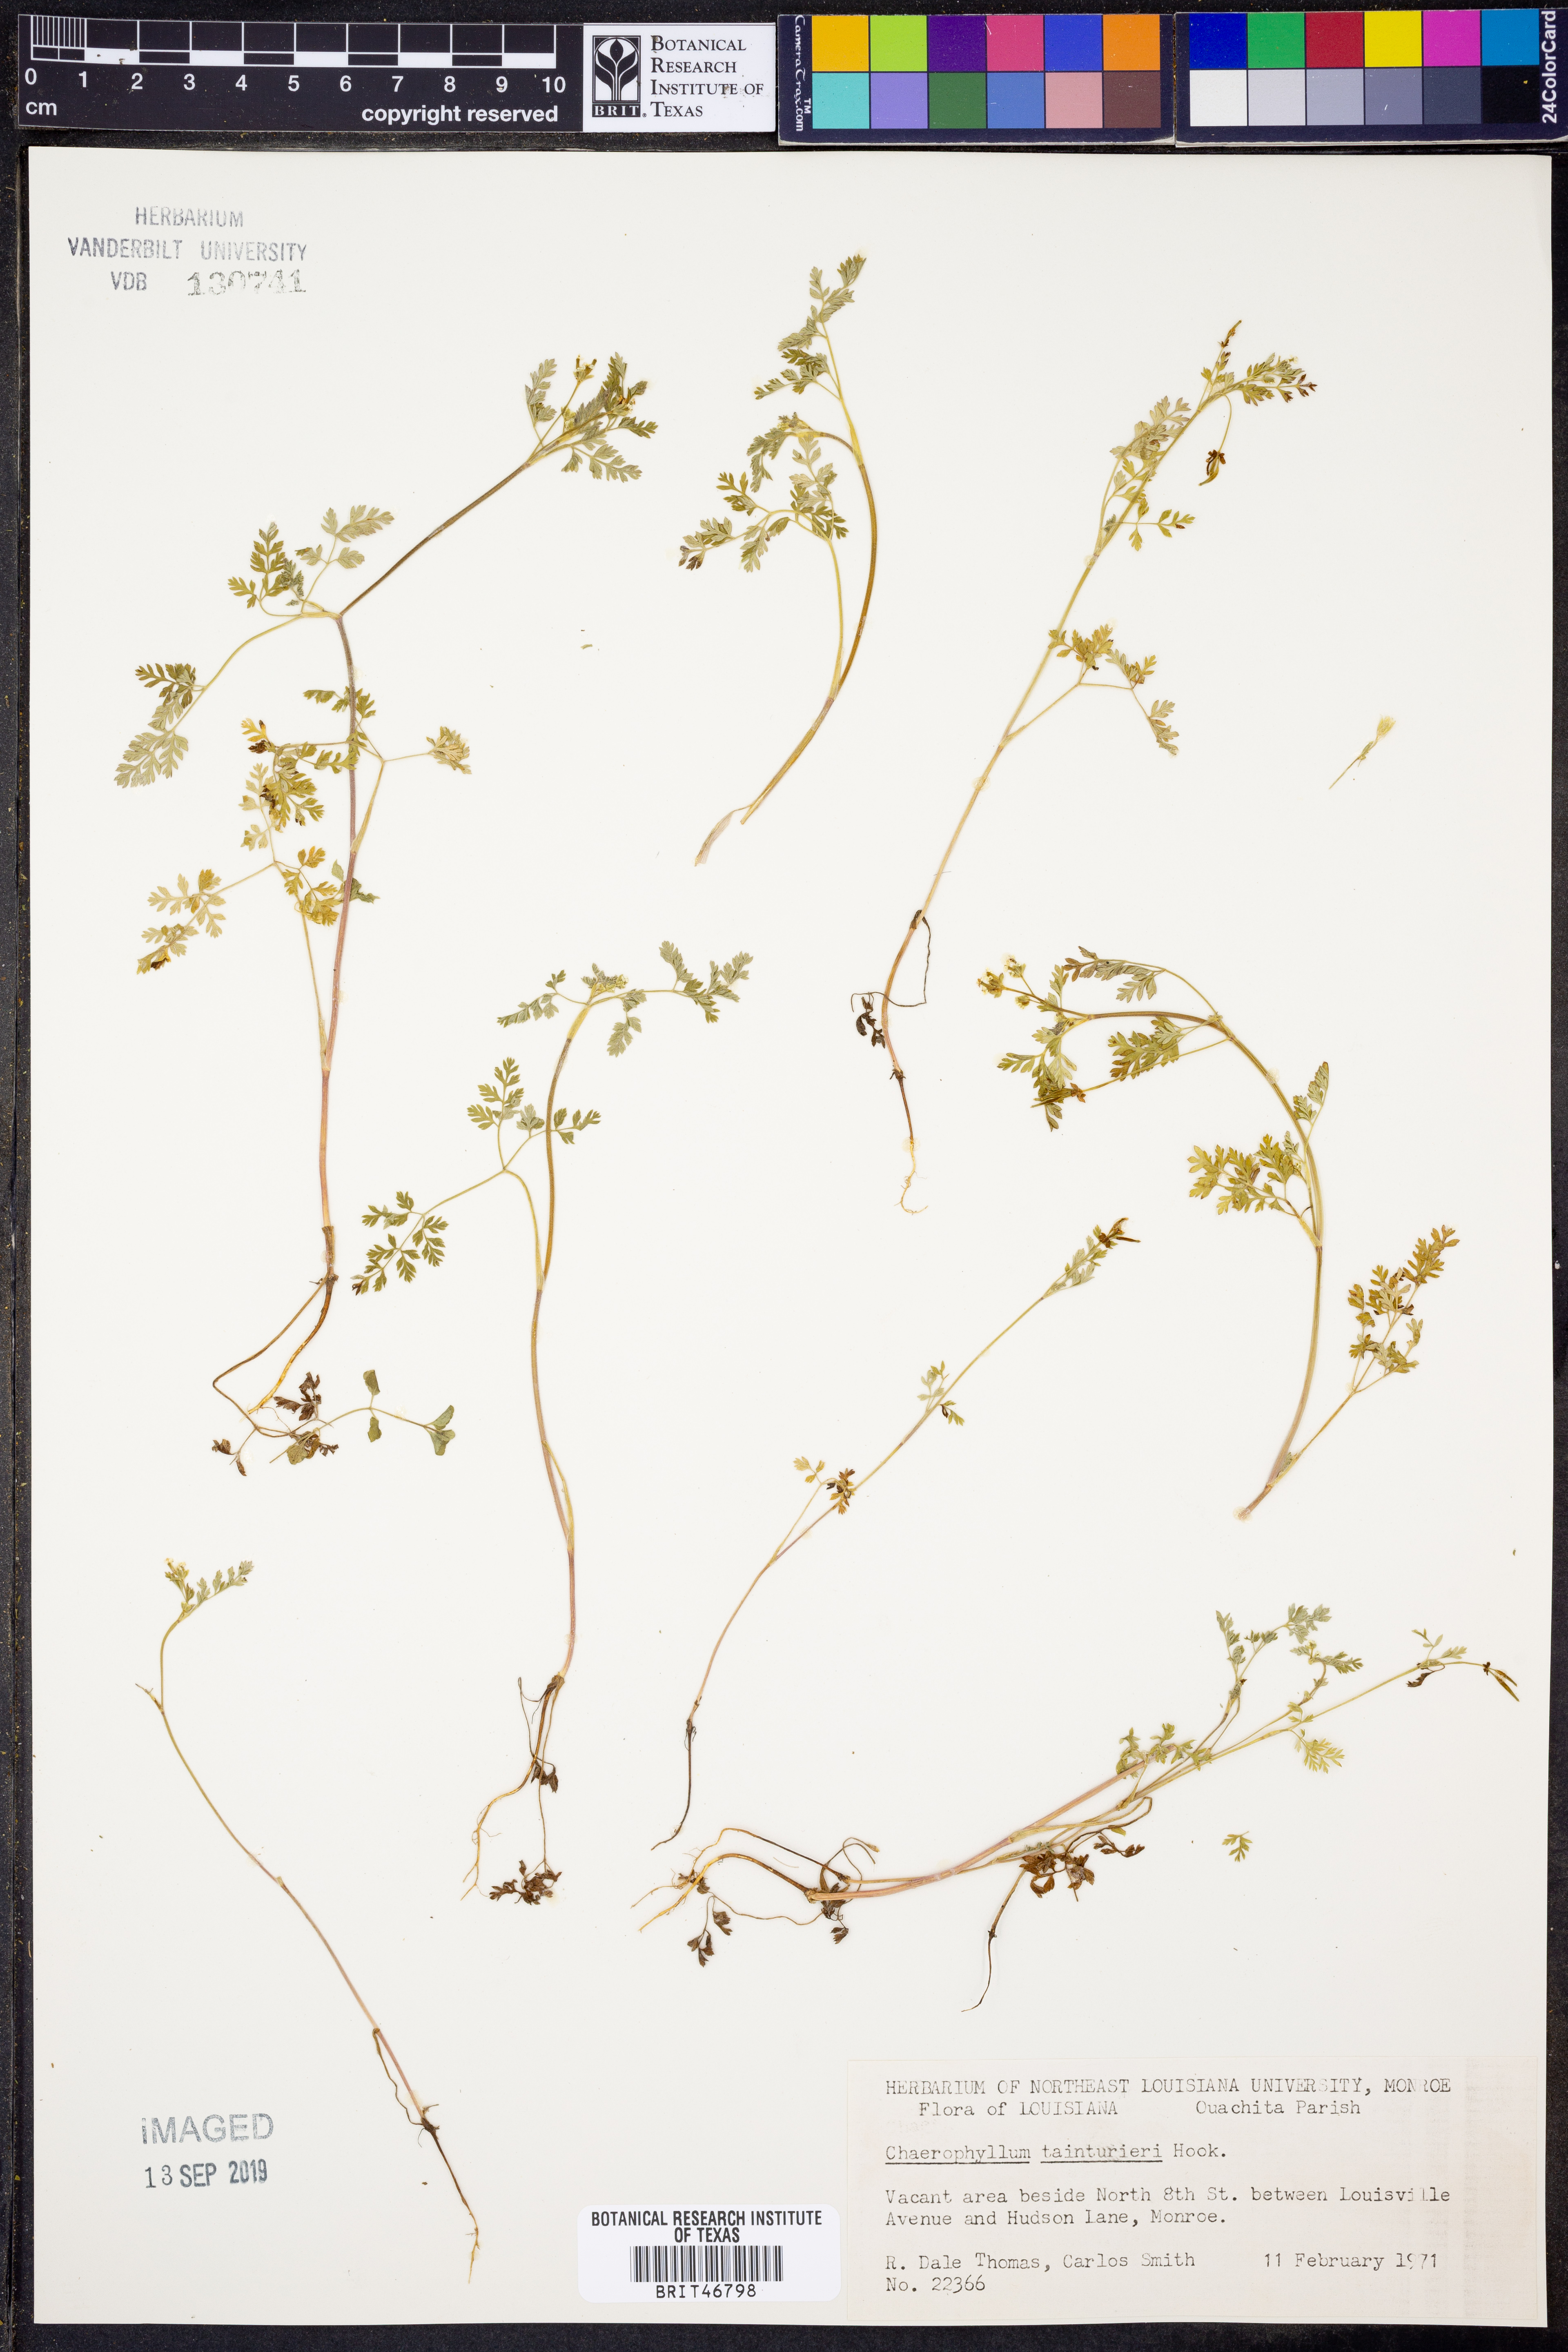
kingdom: Plantae
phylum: Tracheophyta
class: Magnoliopsida
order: Apiales
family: Apiaceae
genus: Chaerophyllum
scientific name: Chaerophyllum tainturieri
